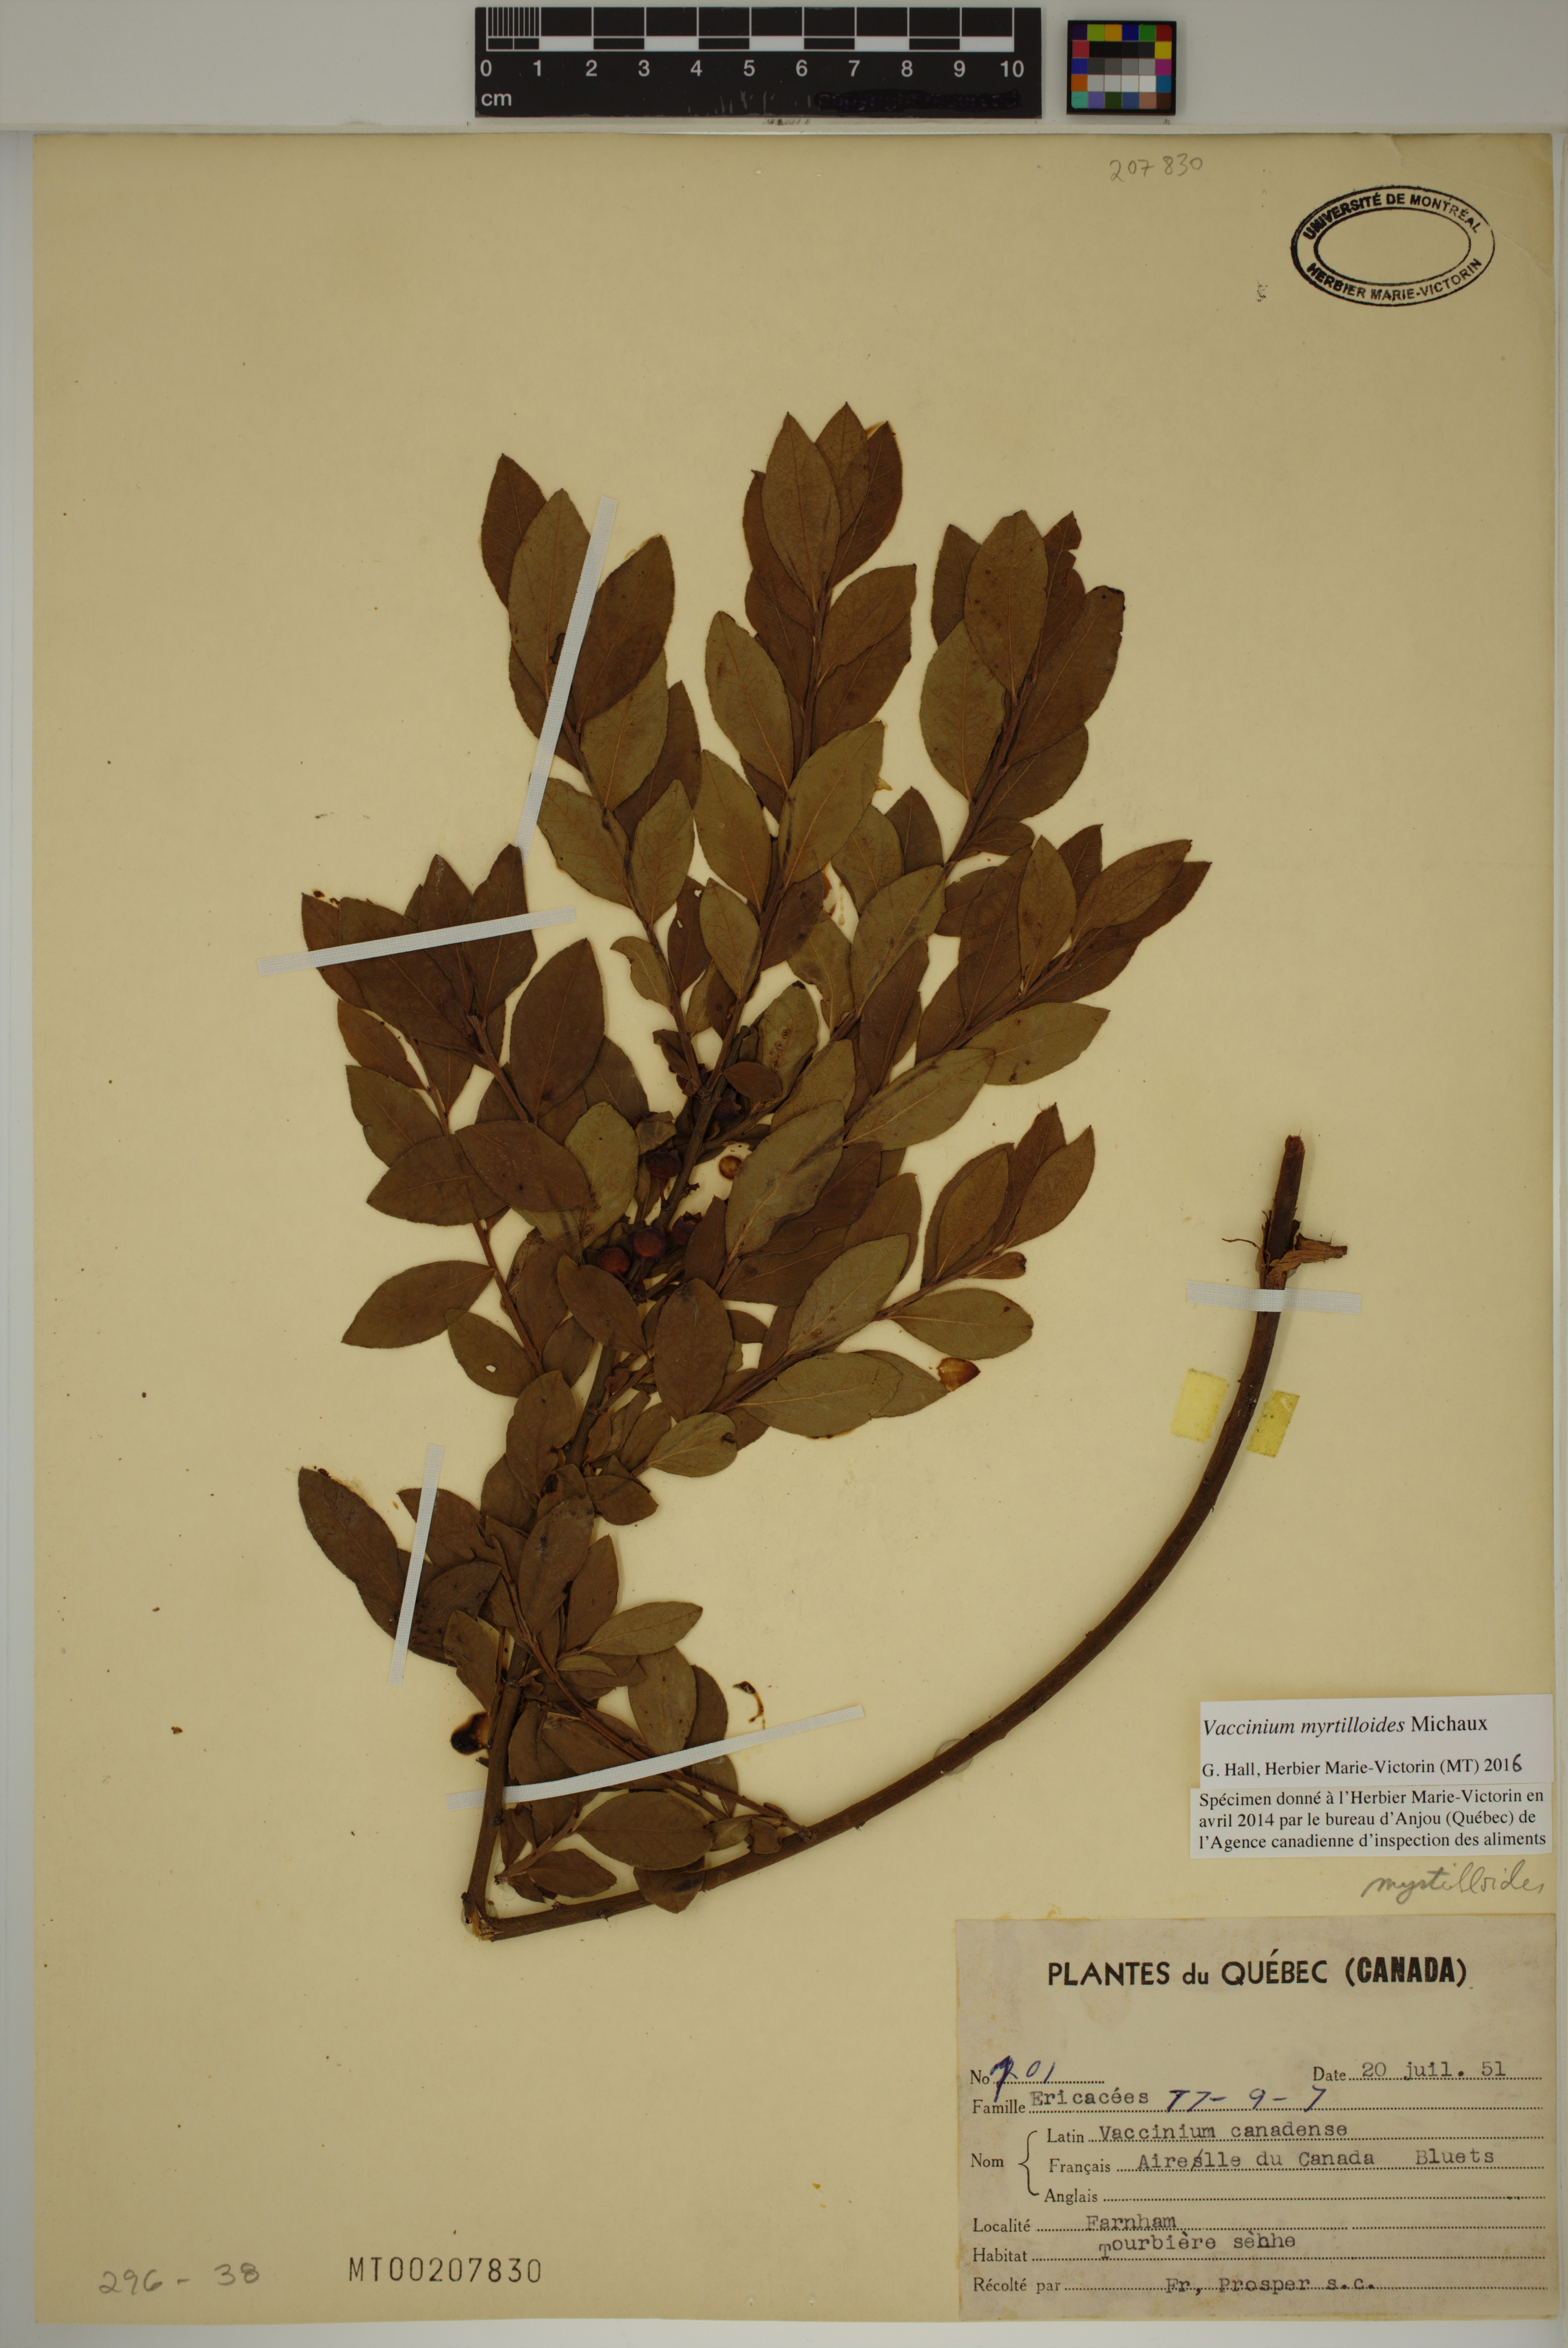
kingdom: Plantae
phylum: Tracheophyta
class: Magnoliopsida
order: Ericales
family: Ericaceae
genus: Vaccinium
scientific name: Vaccinium myrtilloides
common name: Canada blueberry
